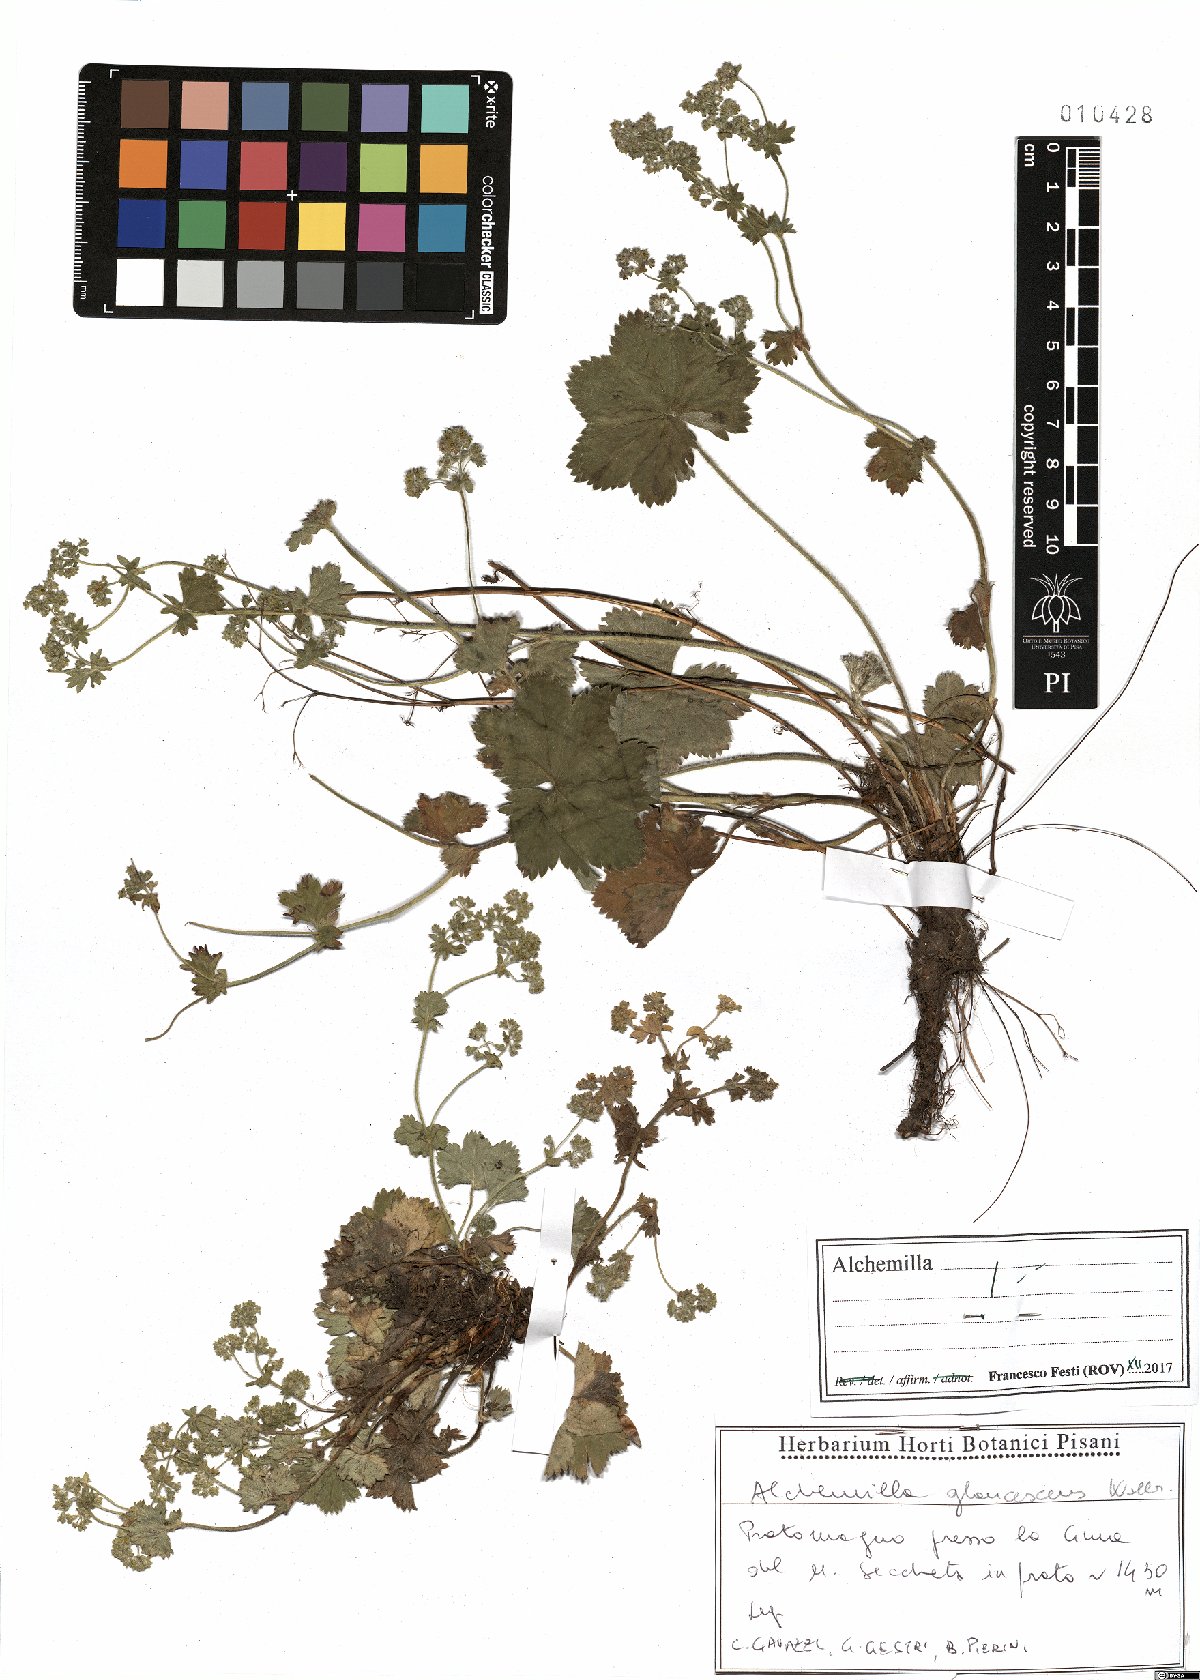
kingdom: Plantae
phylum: Tracheophyta
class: Magnoliopsida
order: Rosales
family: Rosaceae
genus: Alchemilla
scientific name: Alchemilla glaucescens
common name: Silky lady's mantle
